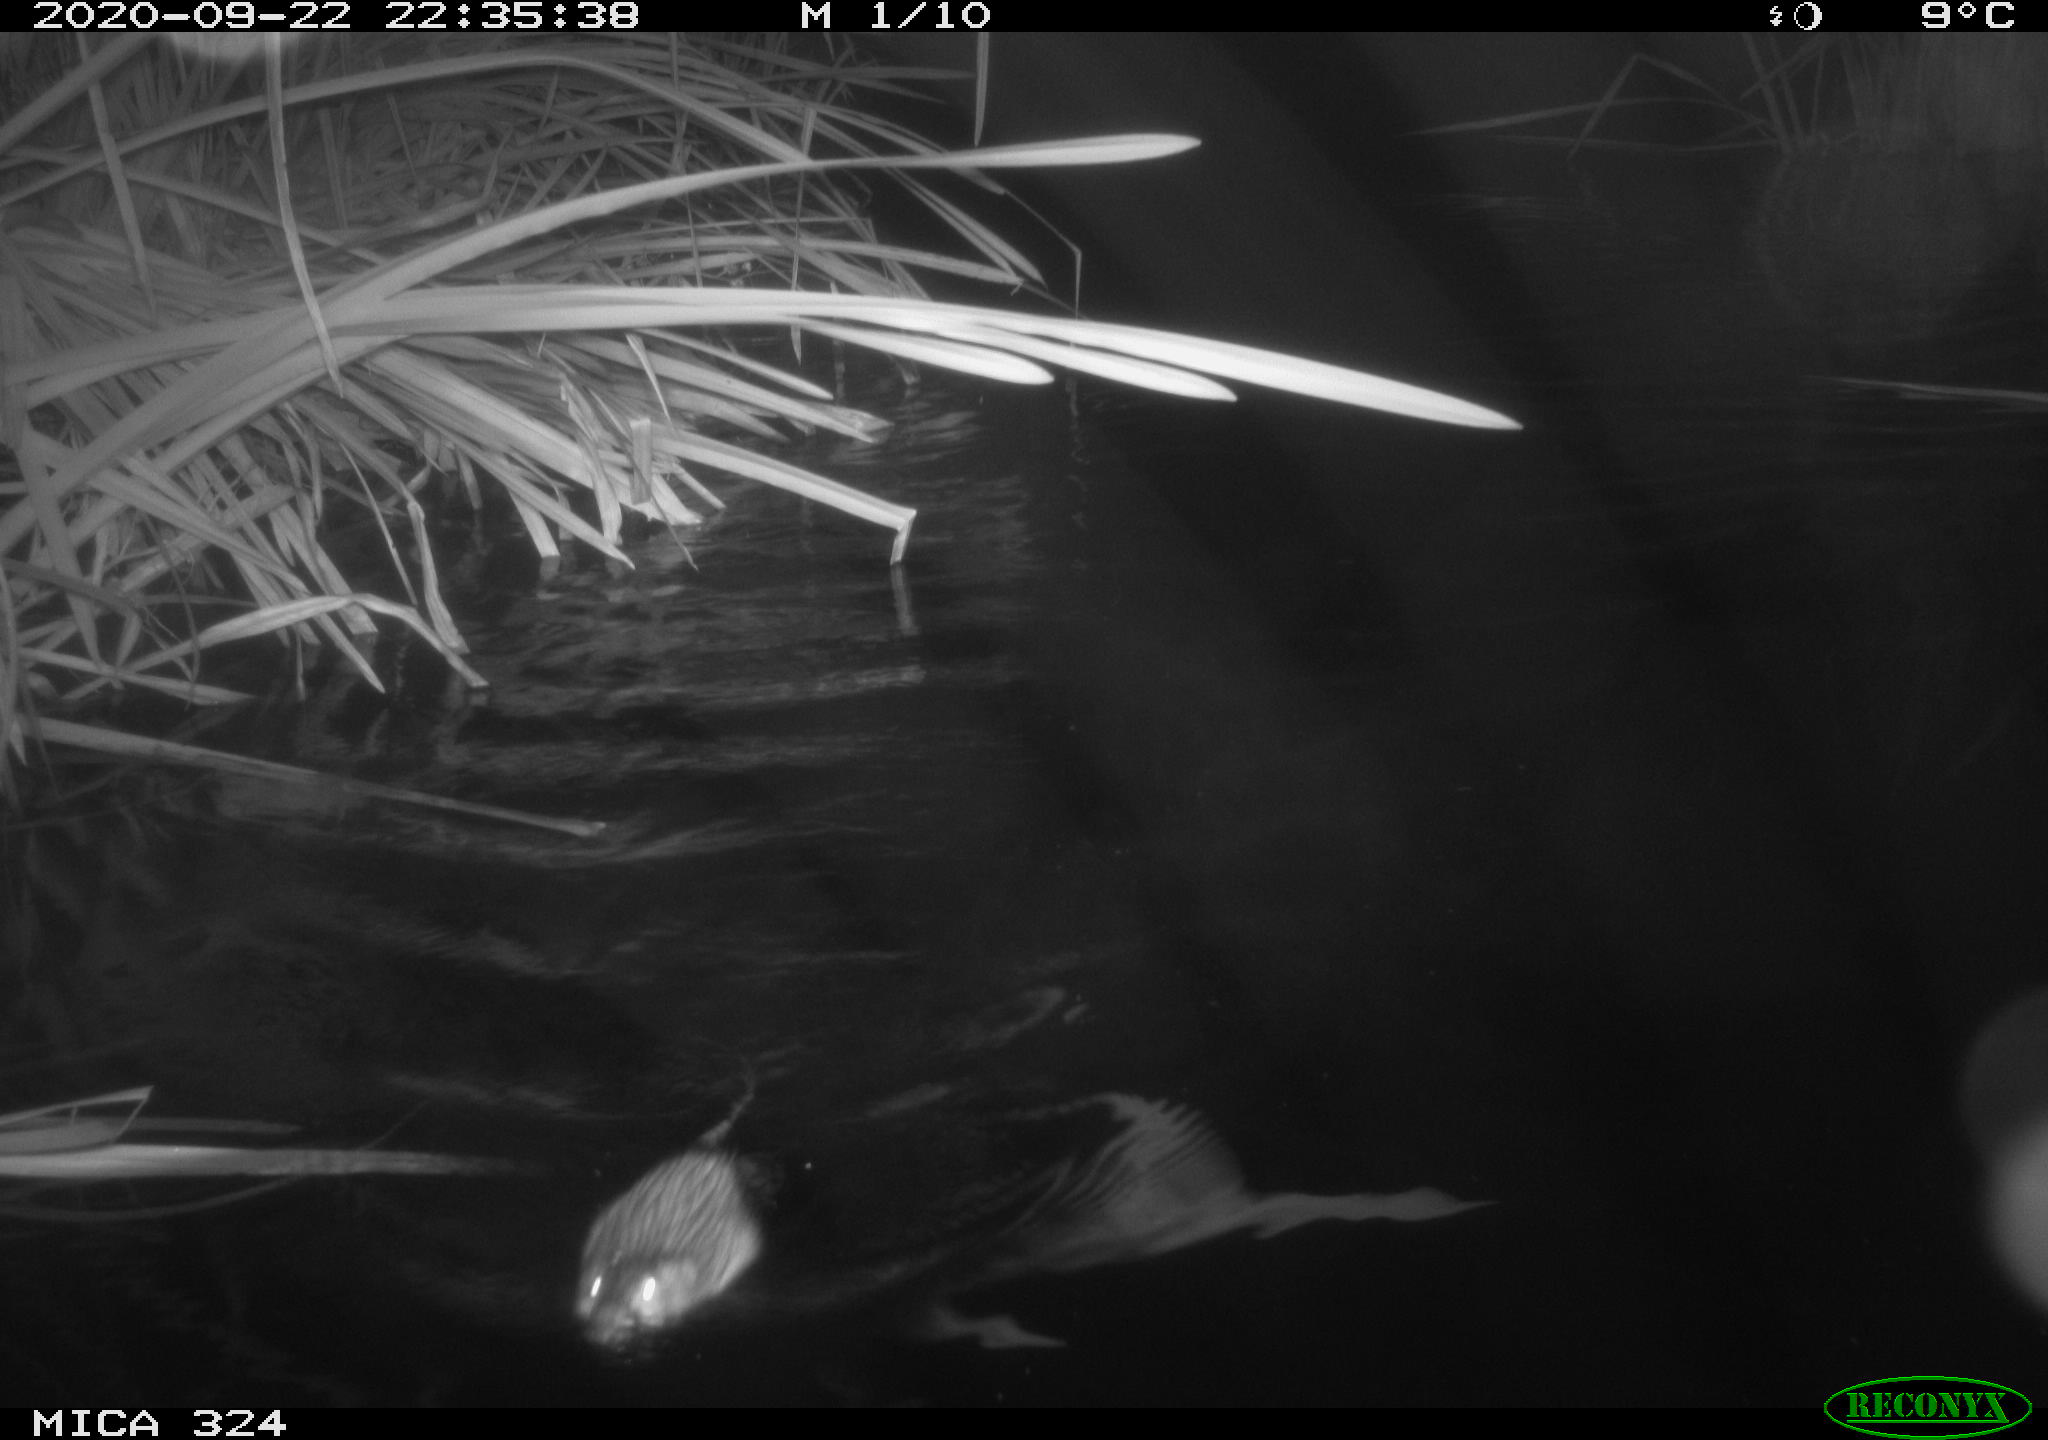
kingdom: Animalia
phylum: Chordata
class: Mammalia
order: Rodentia
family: Cricetidae
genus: Ondatra
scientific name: Ondatra zibethicus
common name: Muskrat
